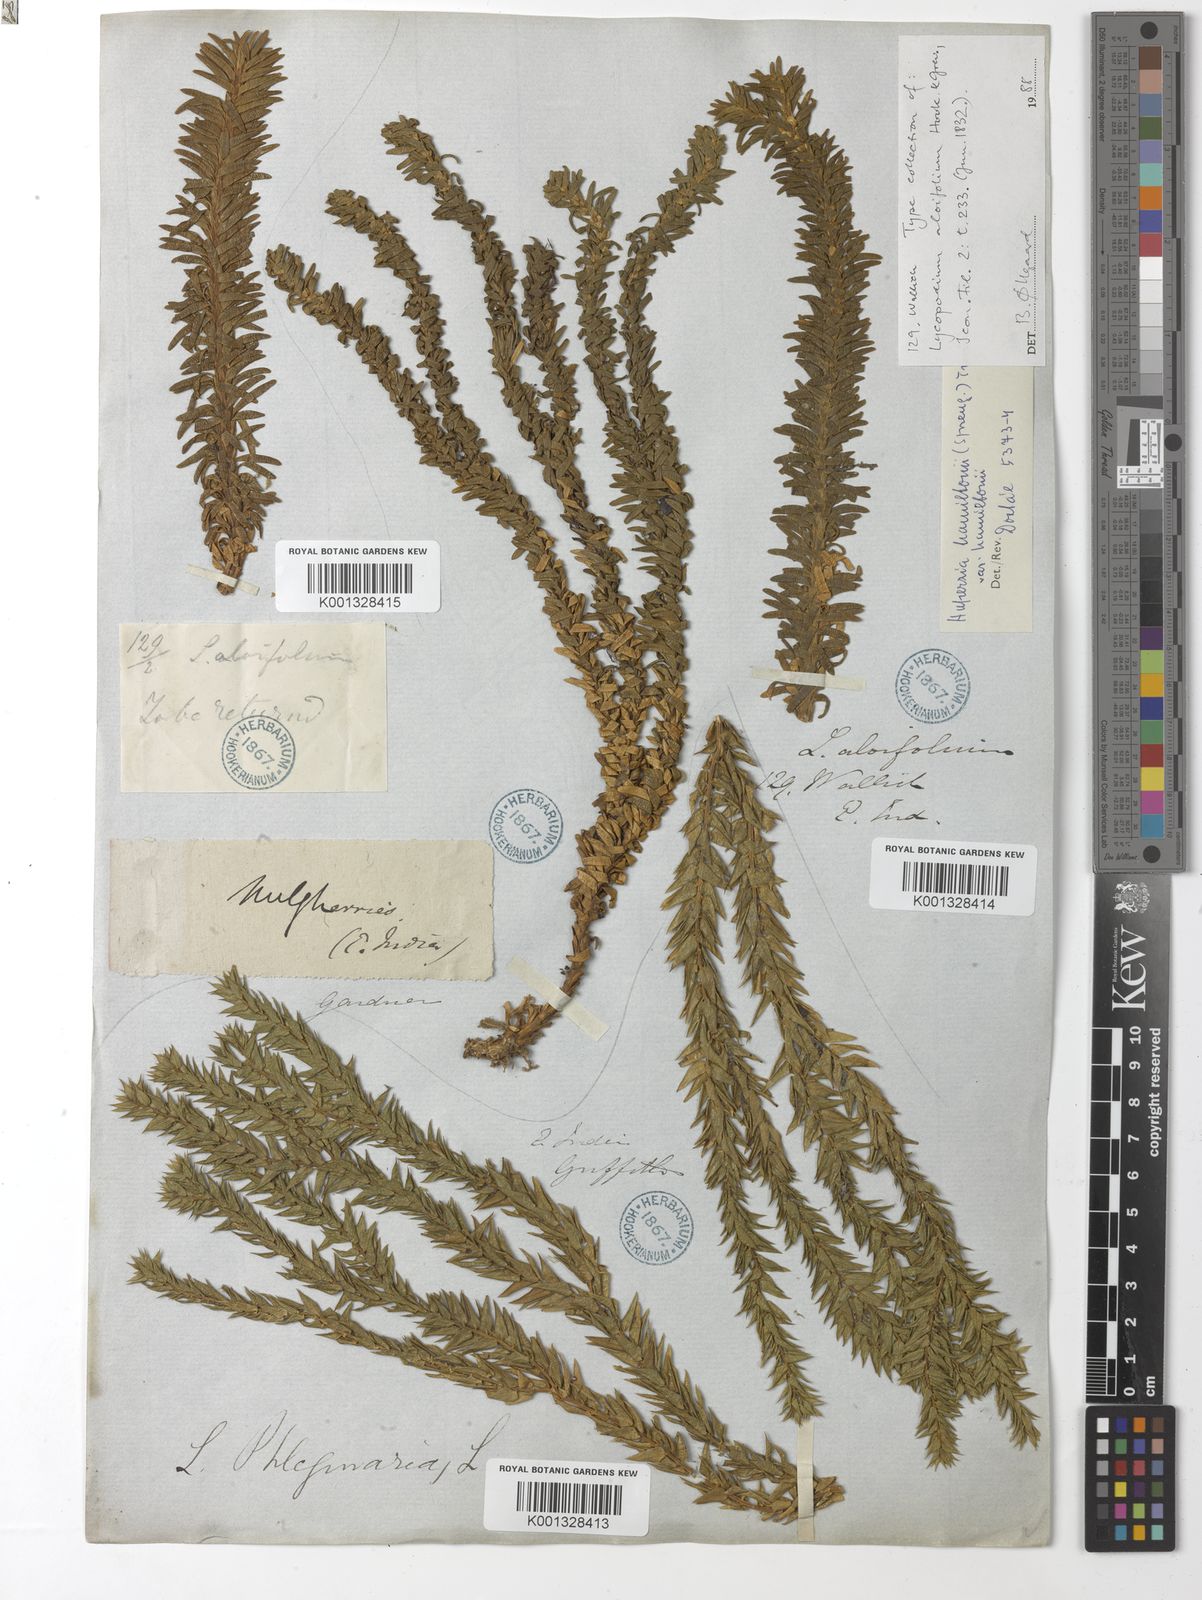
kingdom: Plantae
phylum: Tracheophyta
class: Lycopodiopsida
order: Lycopodiales
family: Lycopodiaceae
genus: Phlegmariurus
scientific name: Phlegmariurus hamiltonii
